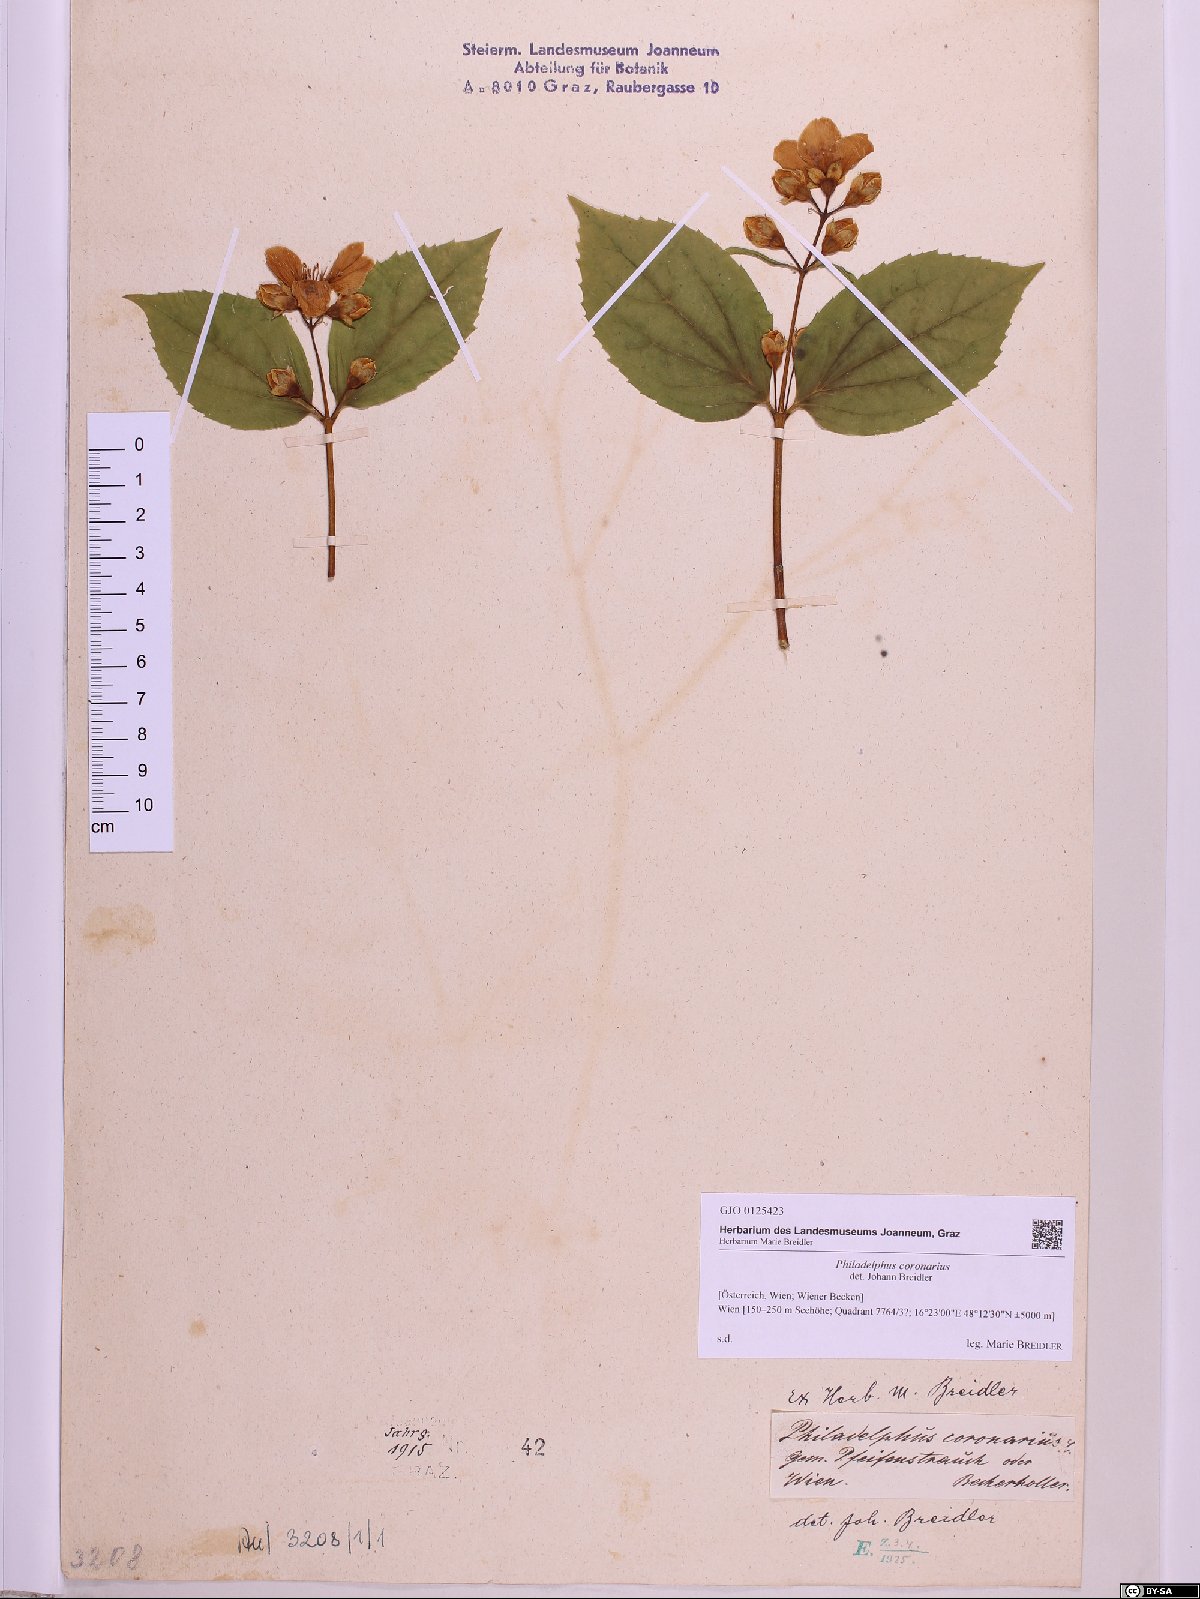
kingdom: Plantae
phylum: Tracheophyta
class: Magnoliopsida
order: Cornales
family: Hydrangeaceae
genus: Philadelphus
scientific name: Philadelphus coronarius
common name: Mock orange
